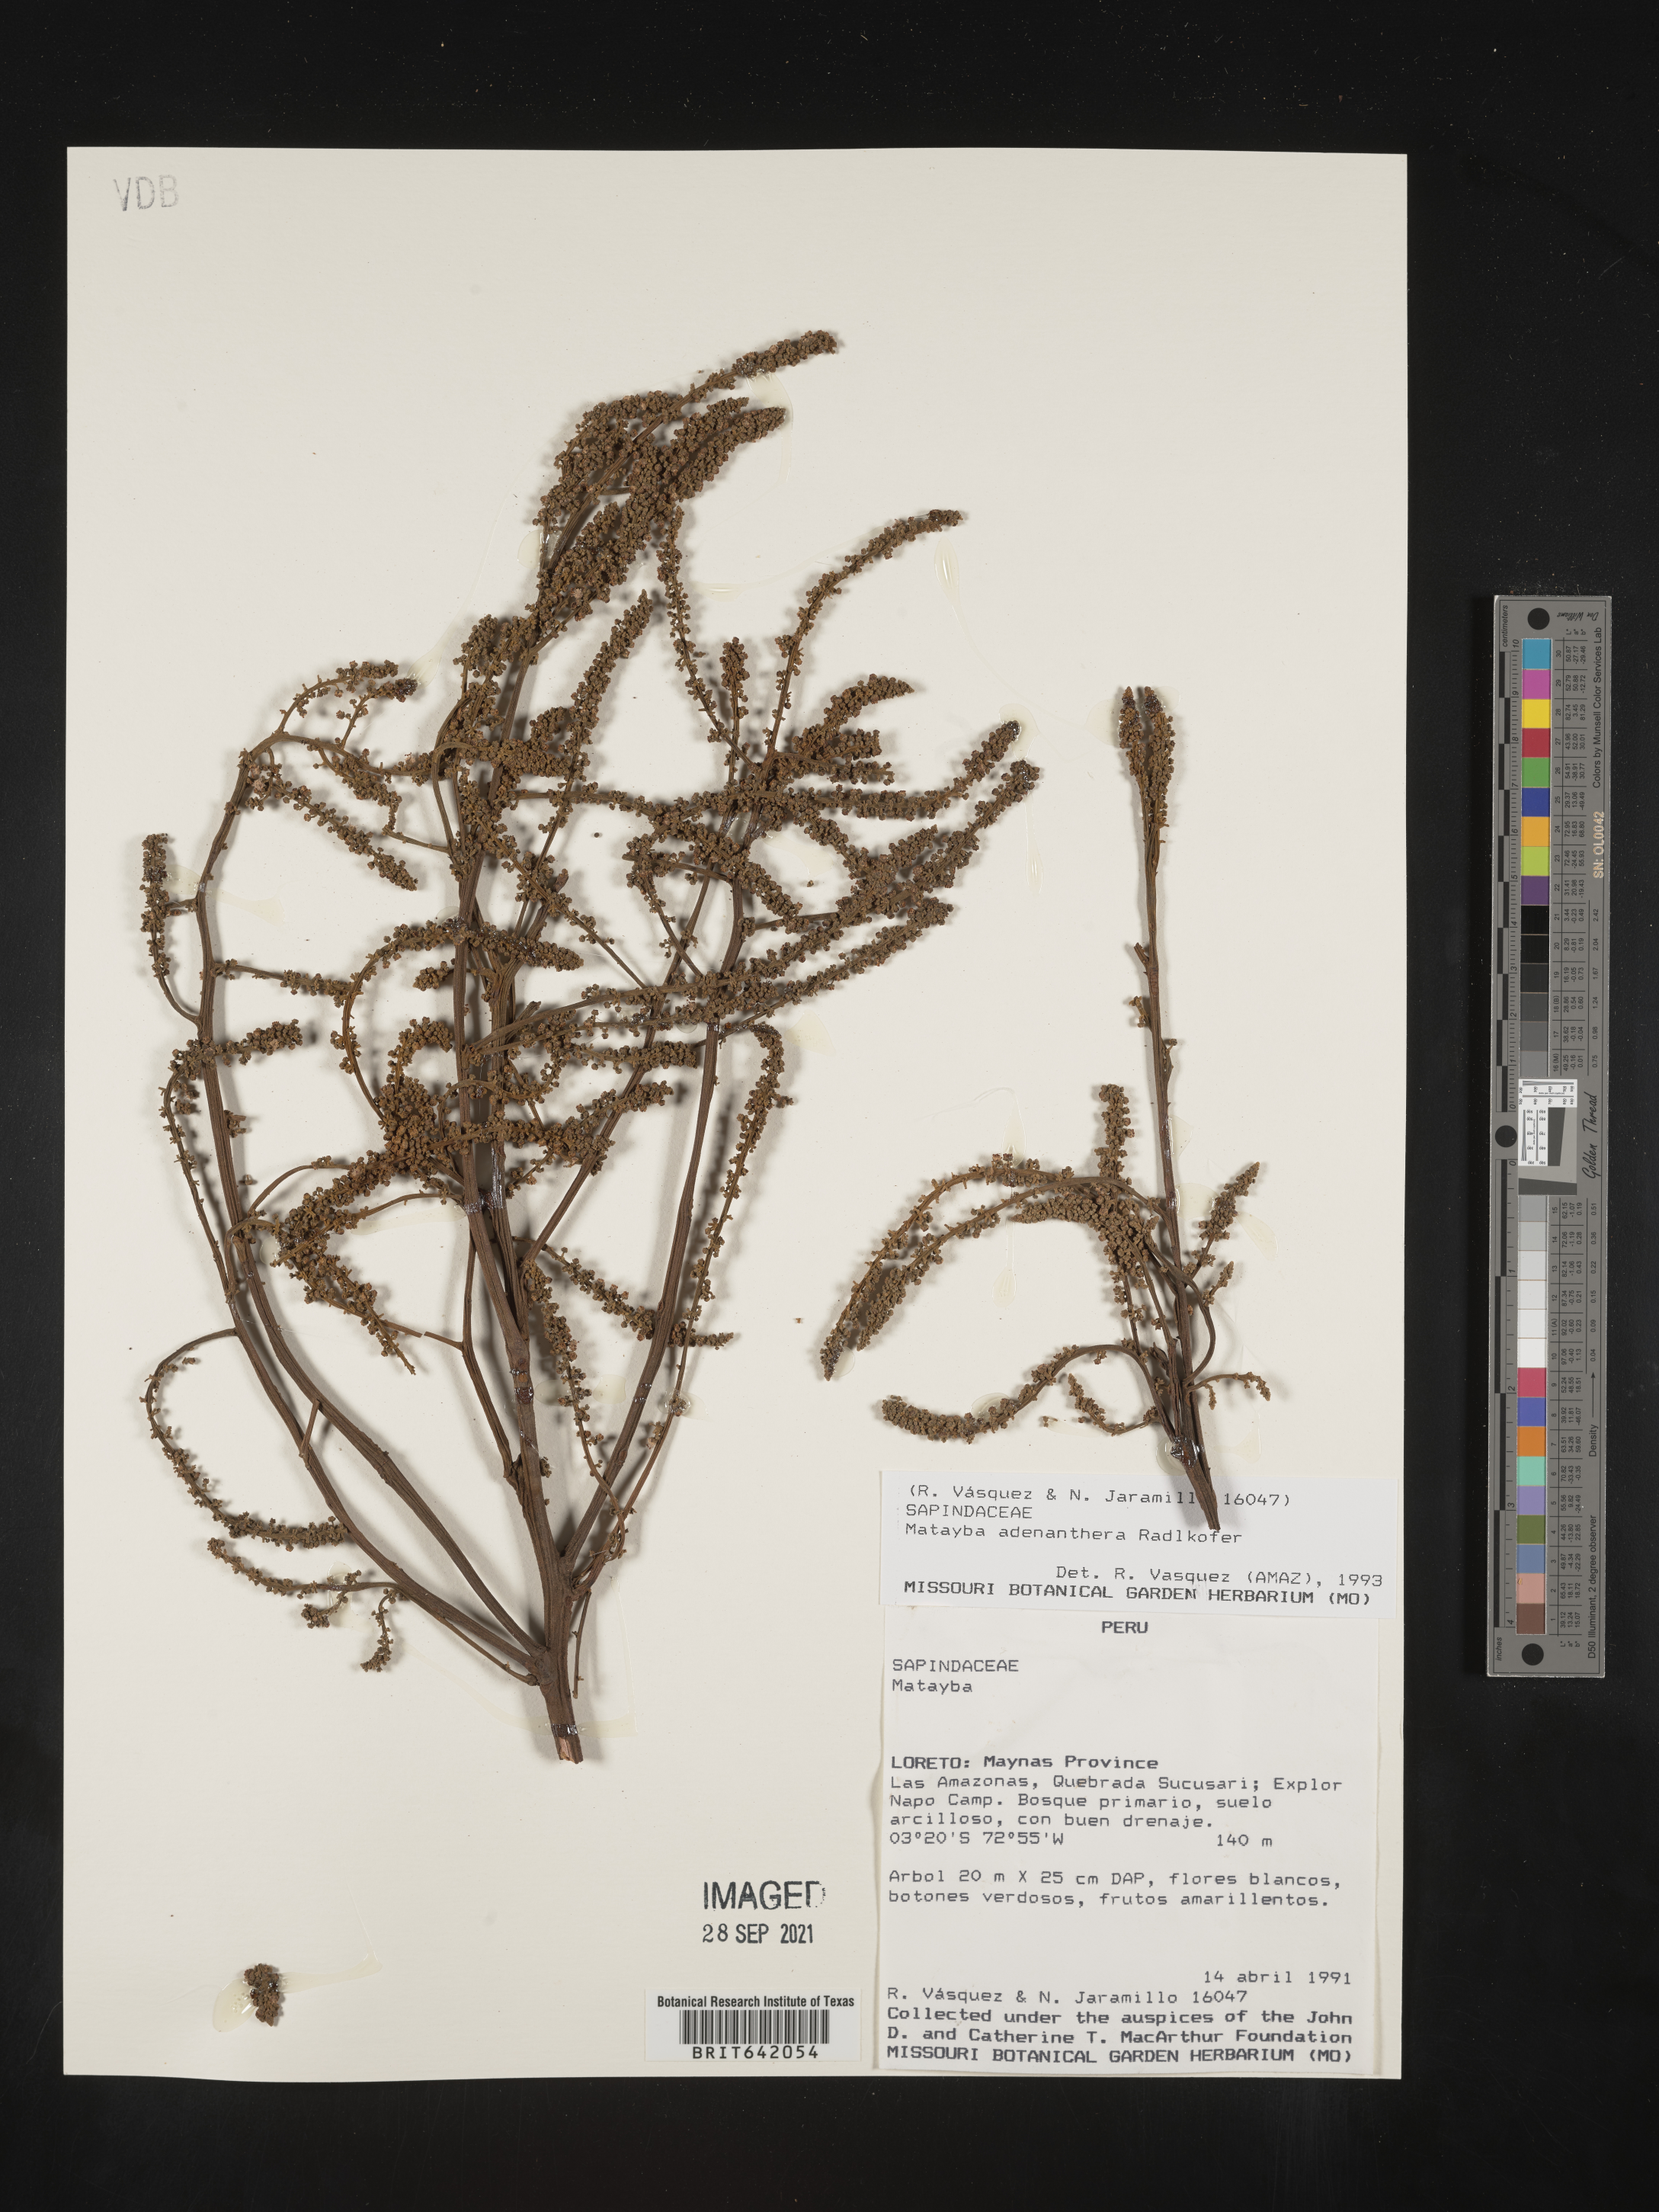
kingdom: Plantae
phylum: Tracheophyta
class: Magnoliopsida
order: Sapindales
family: Sapindaceae
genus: Matayba
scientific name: Matayba
